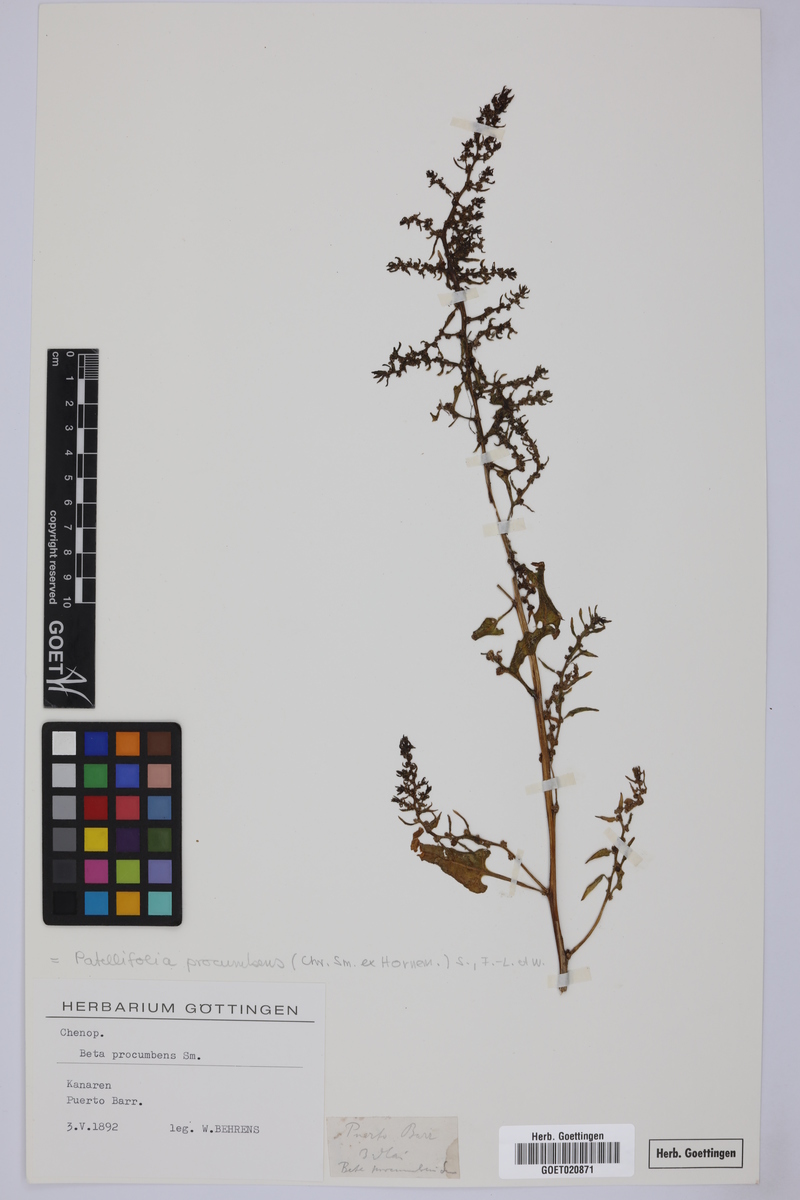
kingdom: Plantae
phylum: Tracheophyta
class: Magnoliopsida
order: Caryophyllales
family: Amaranthaceae
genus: Patellifolia
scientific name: Patellifolia procumbens
